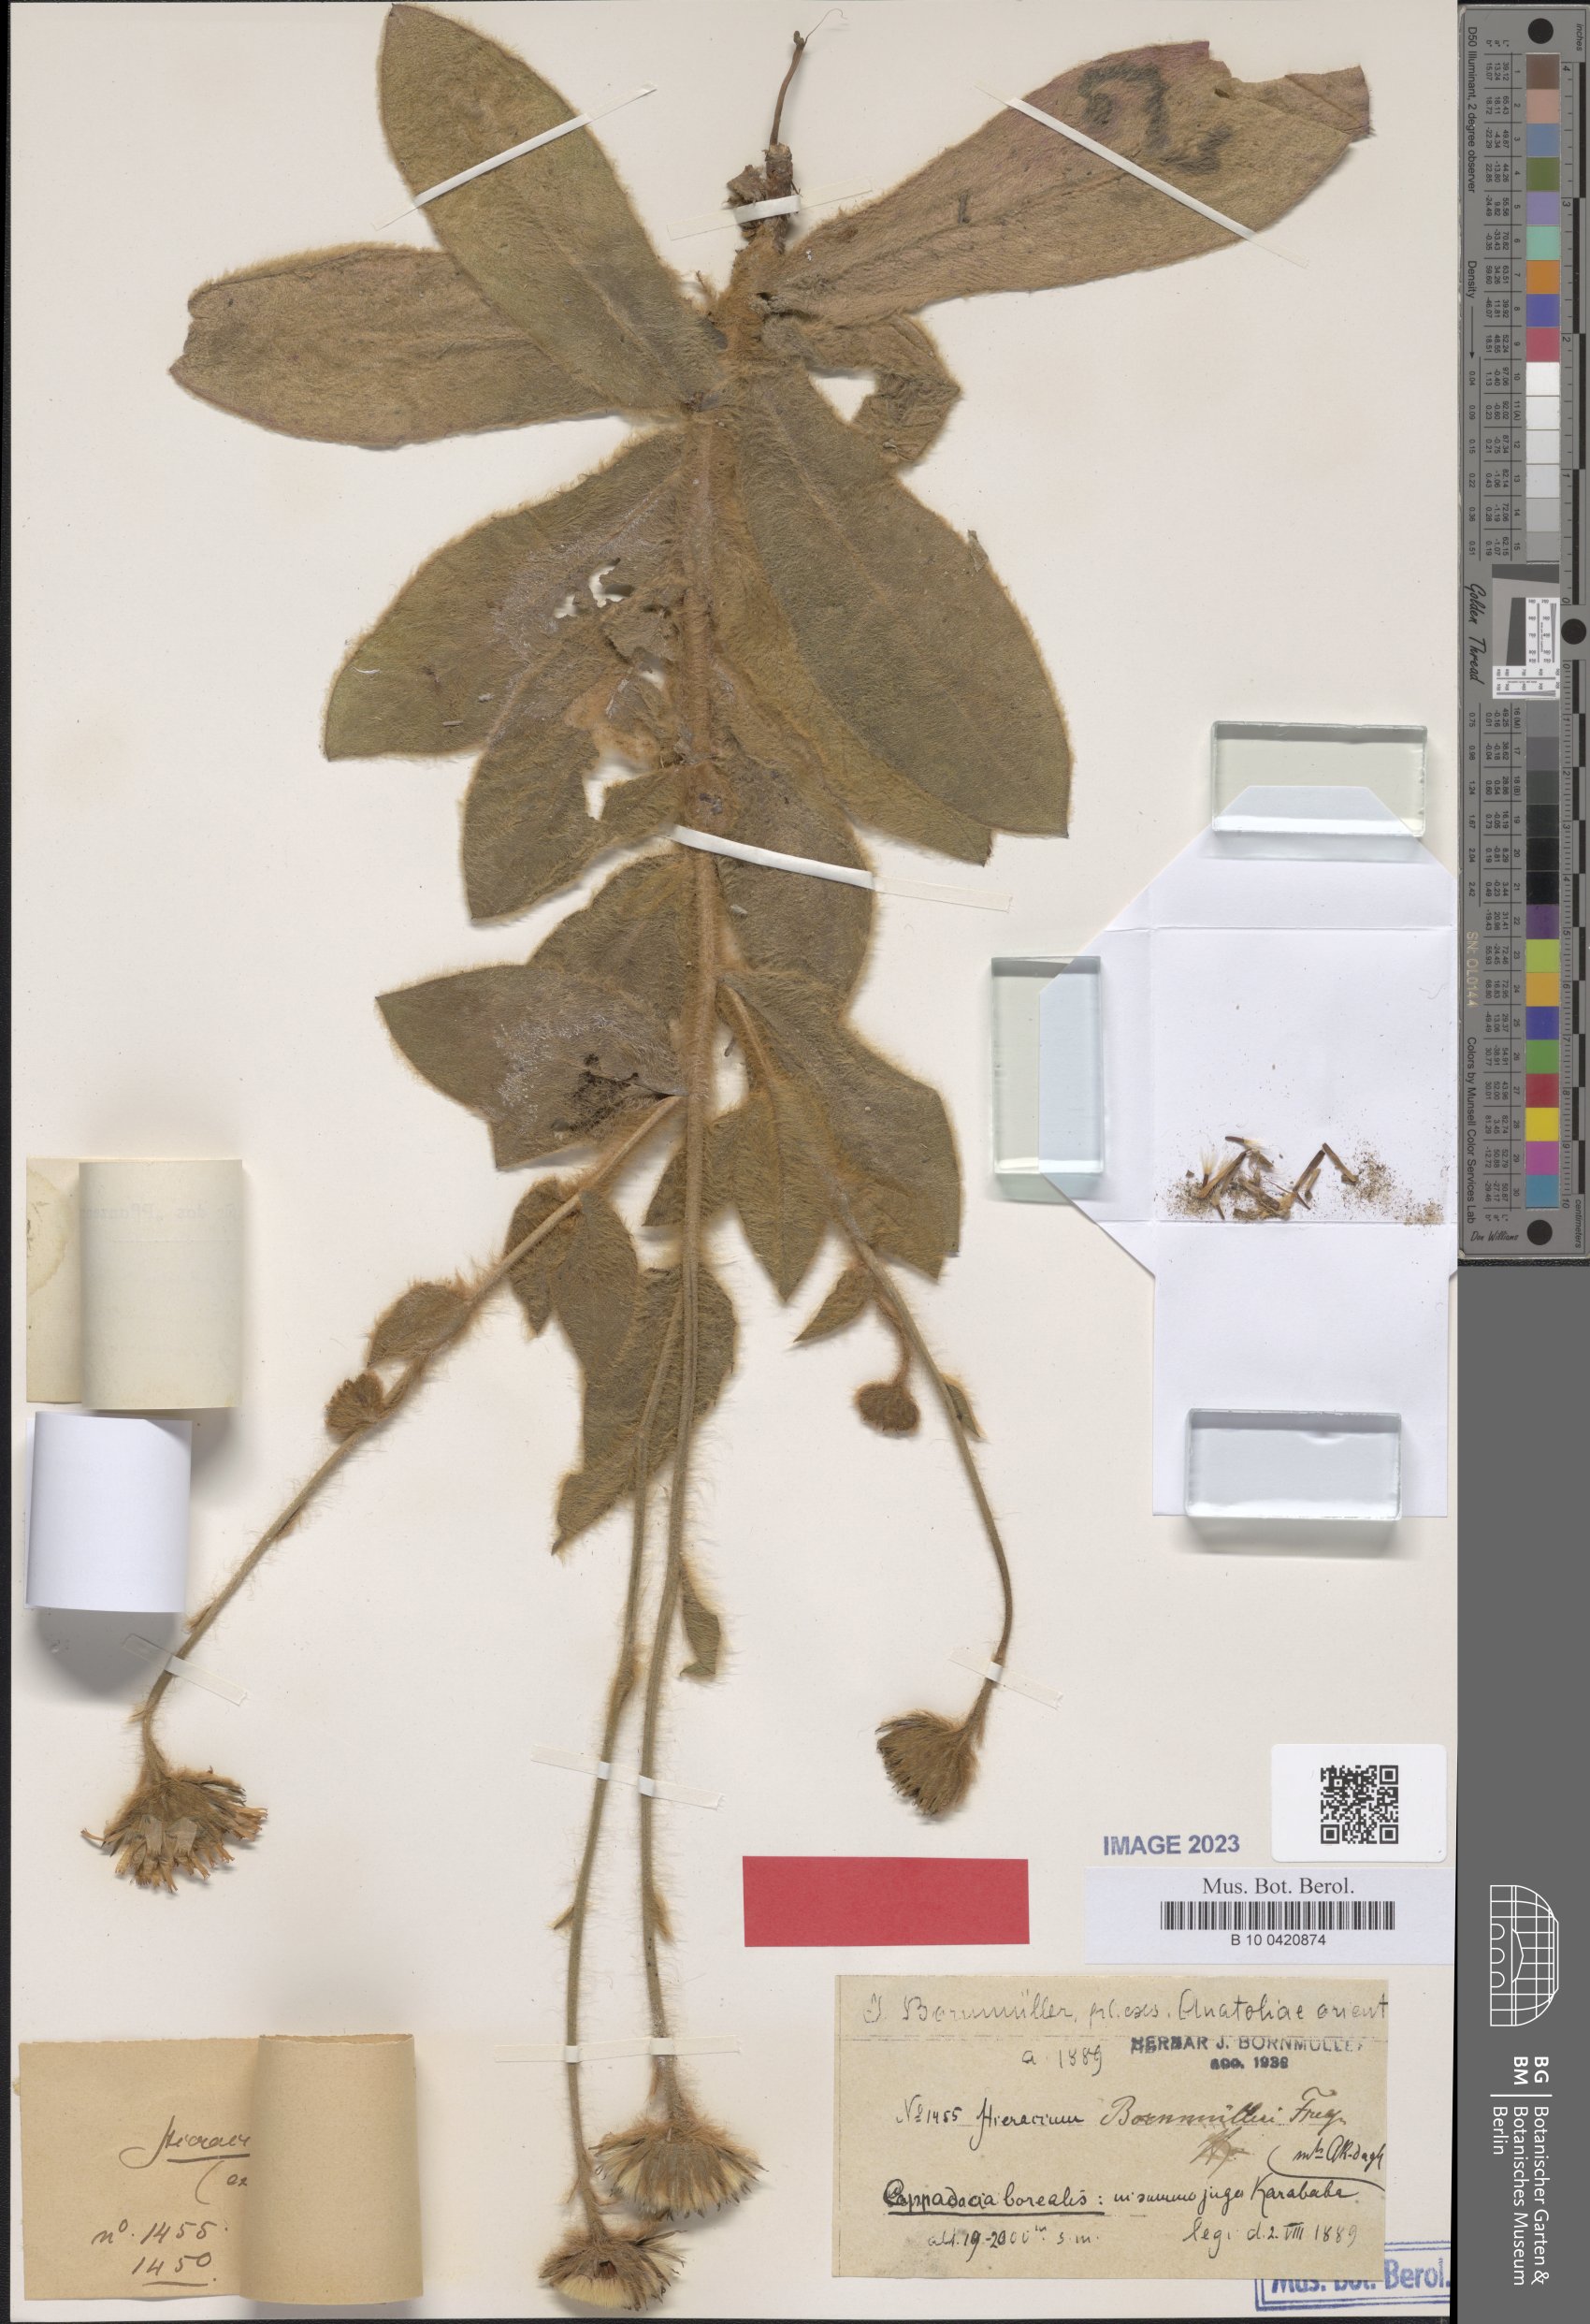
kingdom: Plantae
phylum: Tracheophyta
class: Magnoliopsida
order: Asterales
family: Asteraceae
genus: Hieracium
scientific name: Hieracium pannosum
